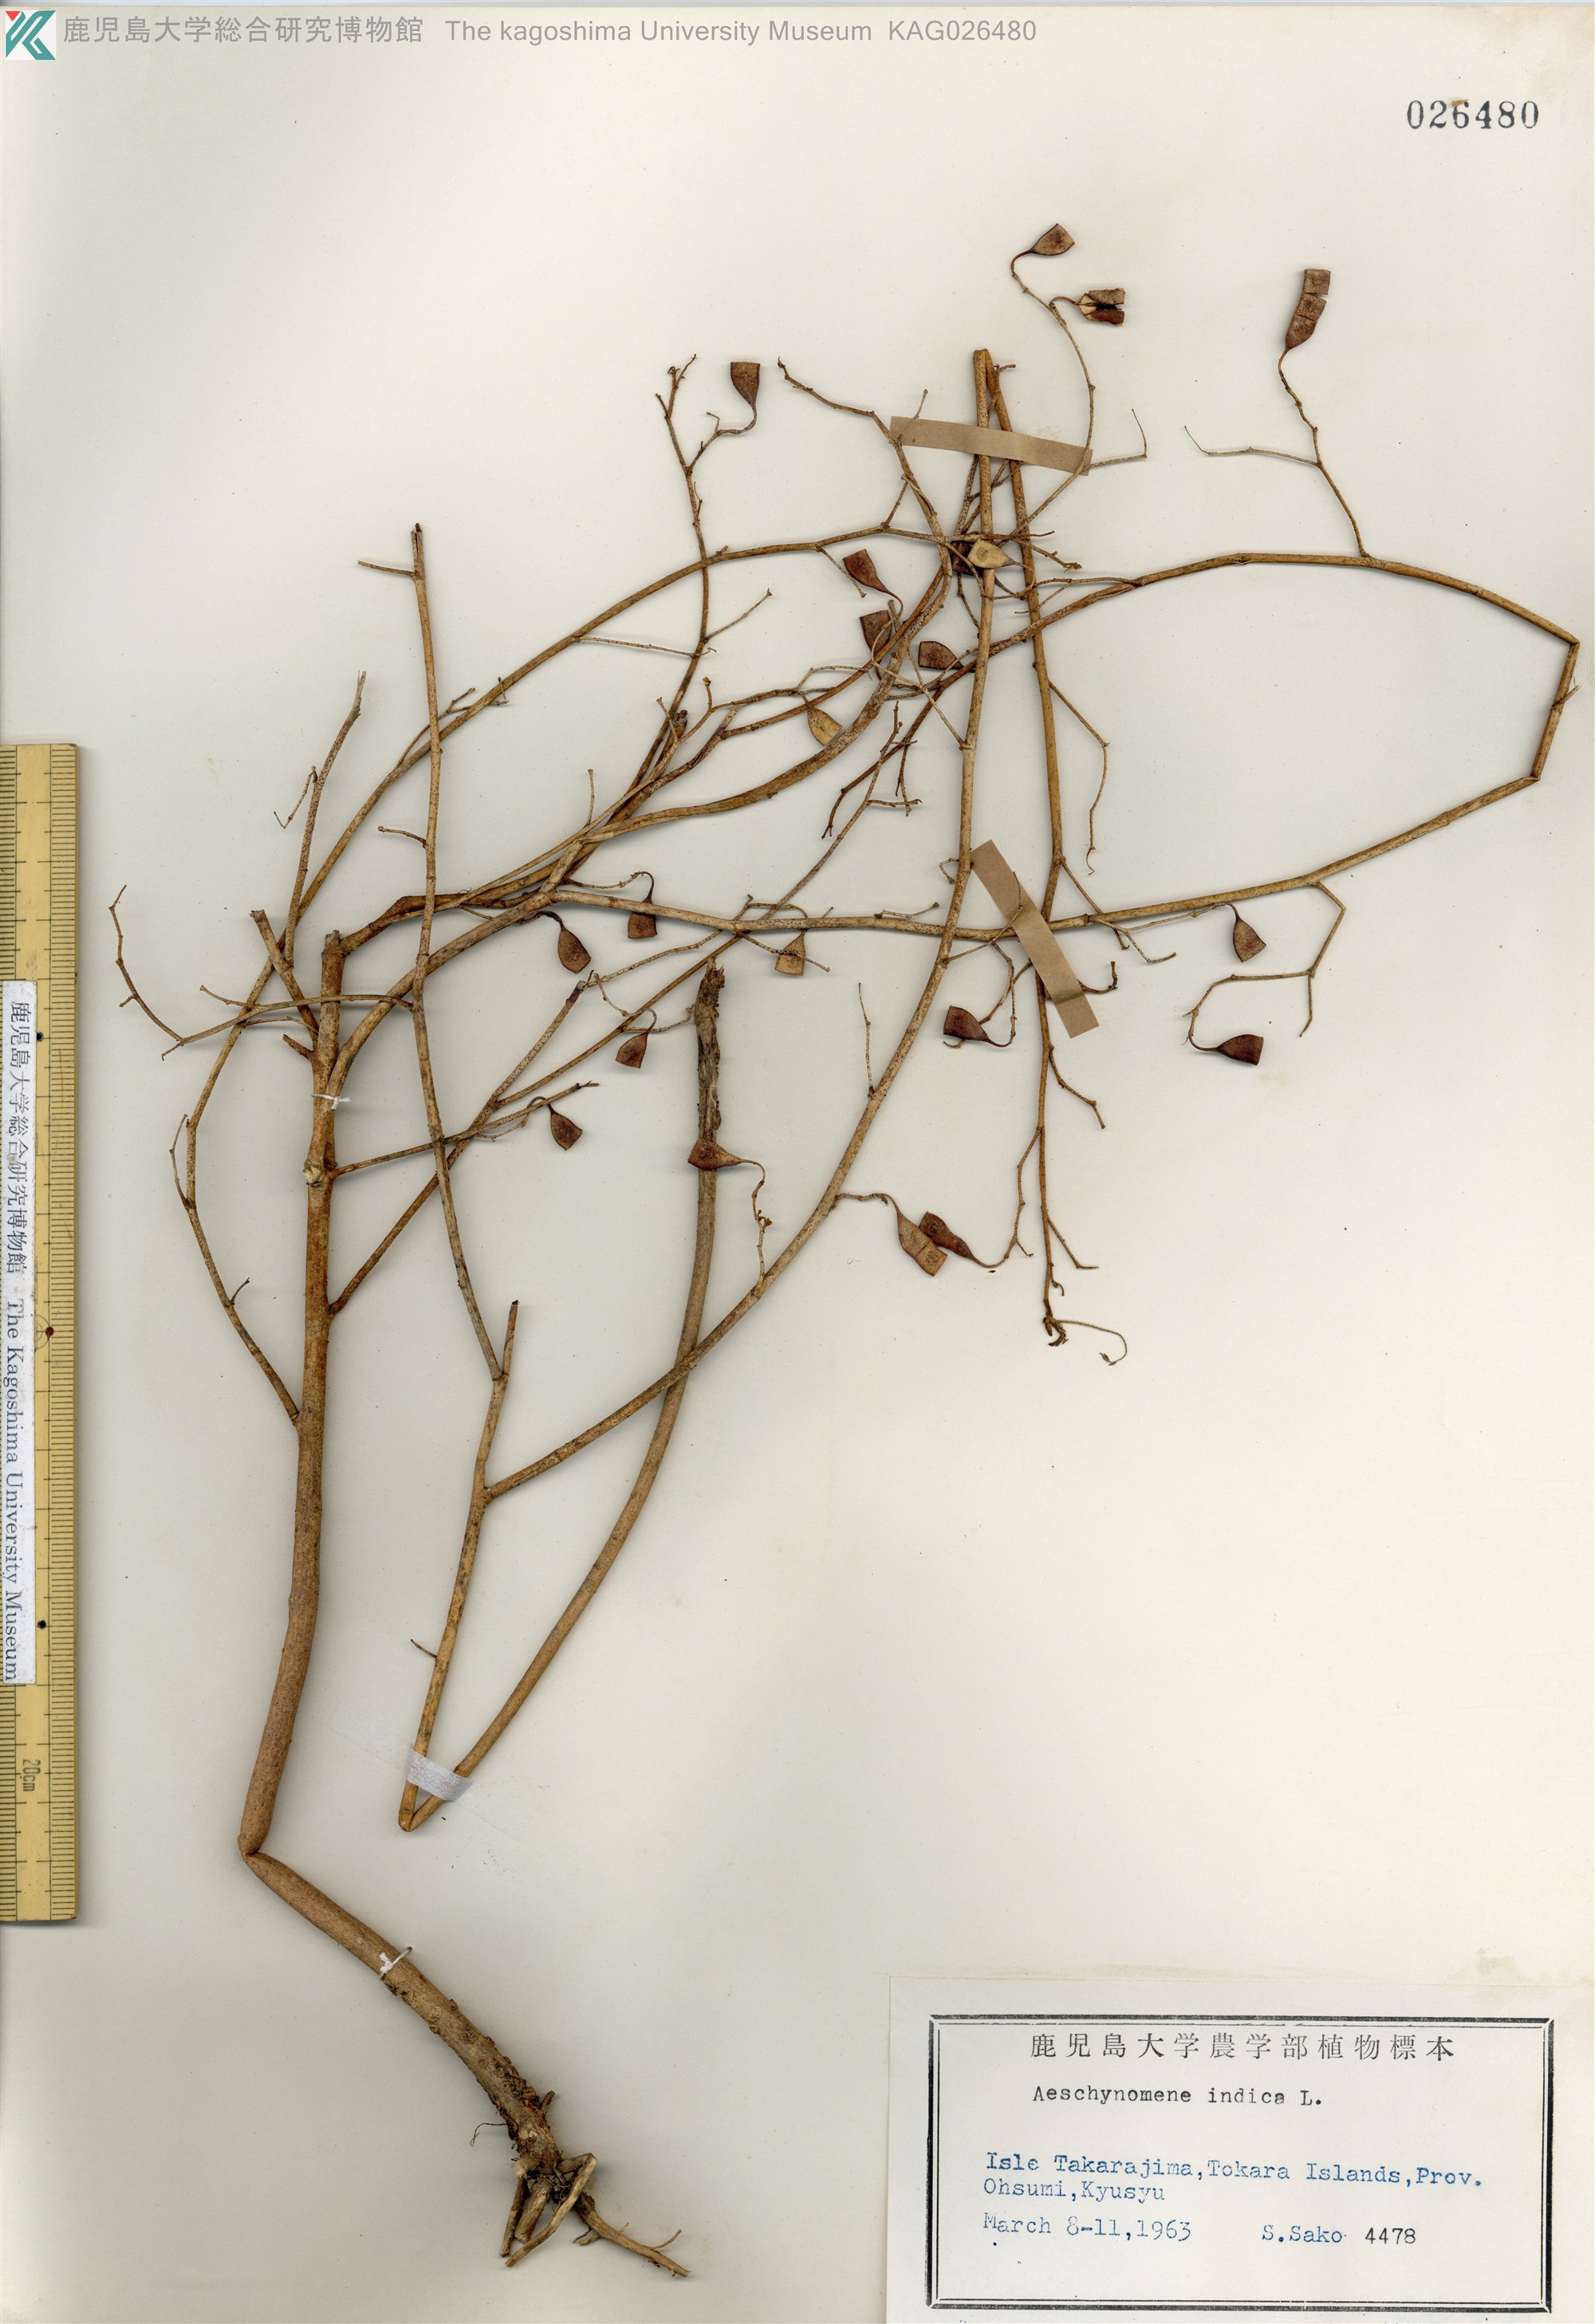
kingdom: Plantae
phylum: Tracheophyta
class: Magnoliopsida
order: Fabales
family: Fabaceae
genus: Aeschynomene
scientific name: Aeschynomene indica
